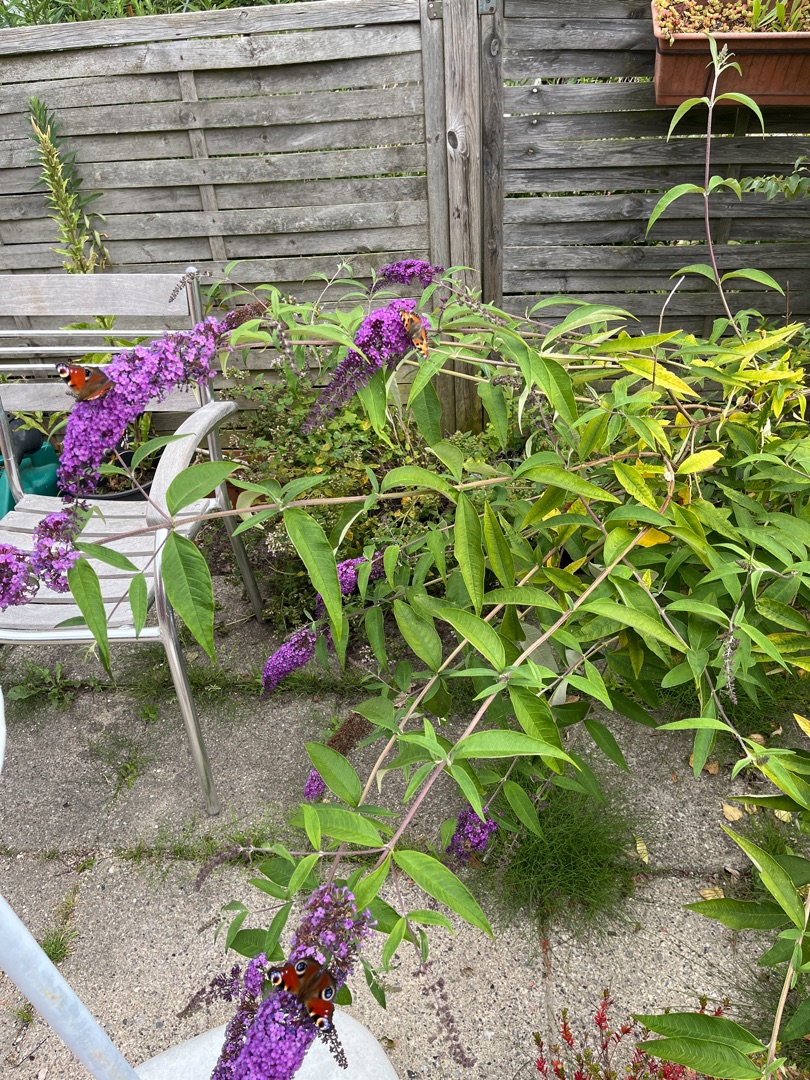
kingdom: Plantae
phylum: Tracheophyta
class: Magnoliopsida
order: Lamiales
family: Scrophulariaceae
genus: Buddleja
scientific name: Buddleja davidii
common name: Sommerfuglebusk
